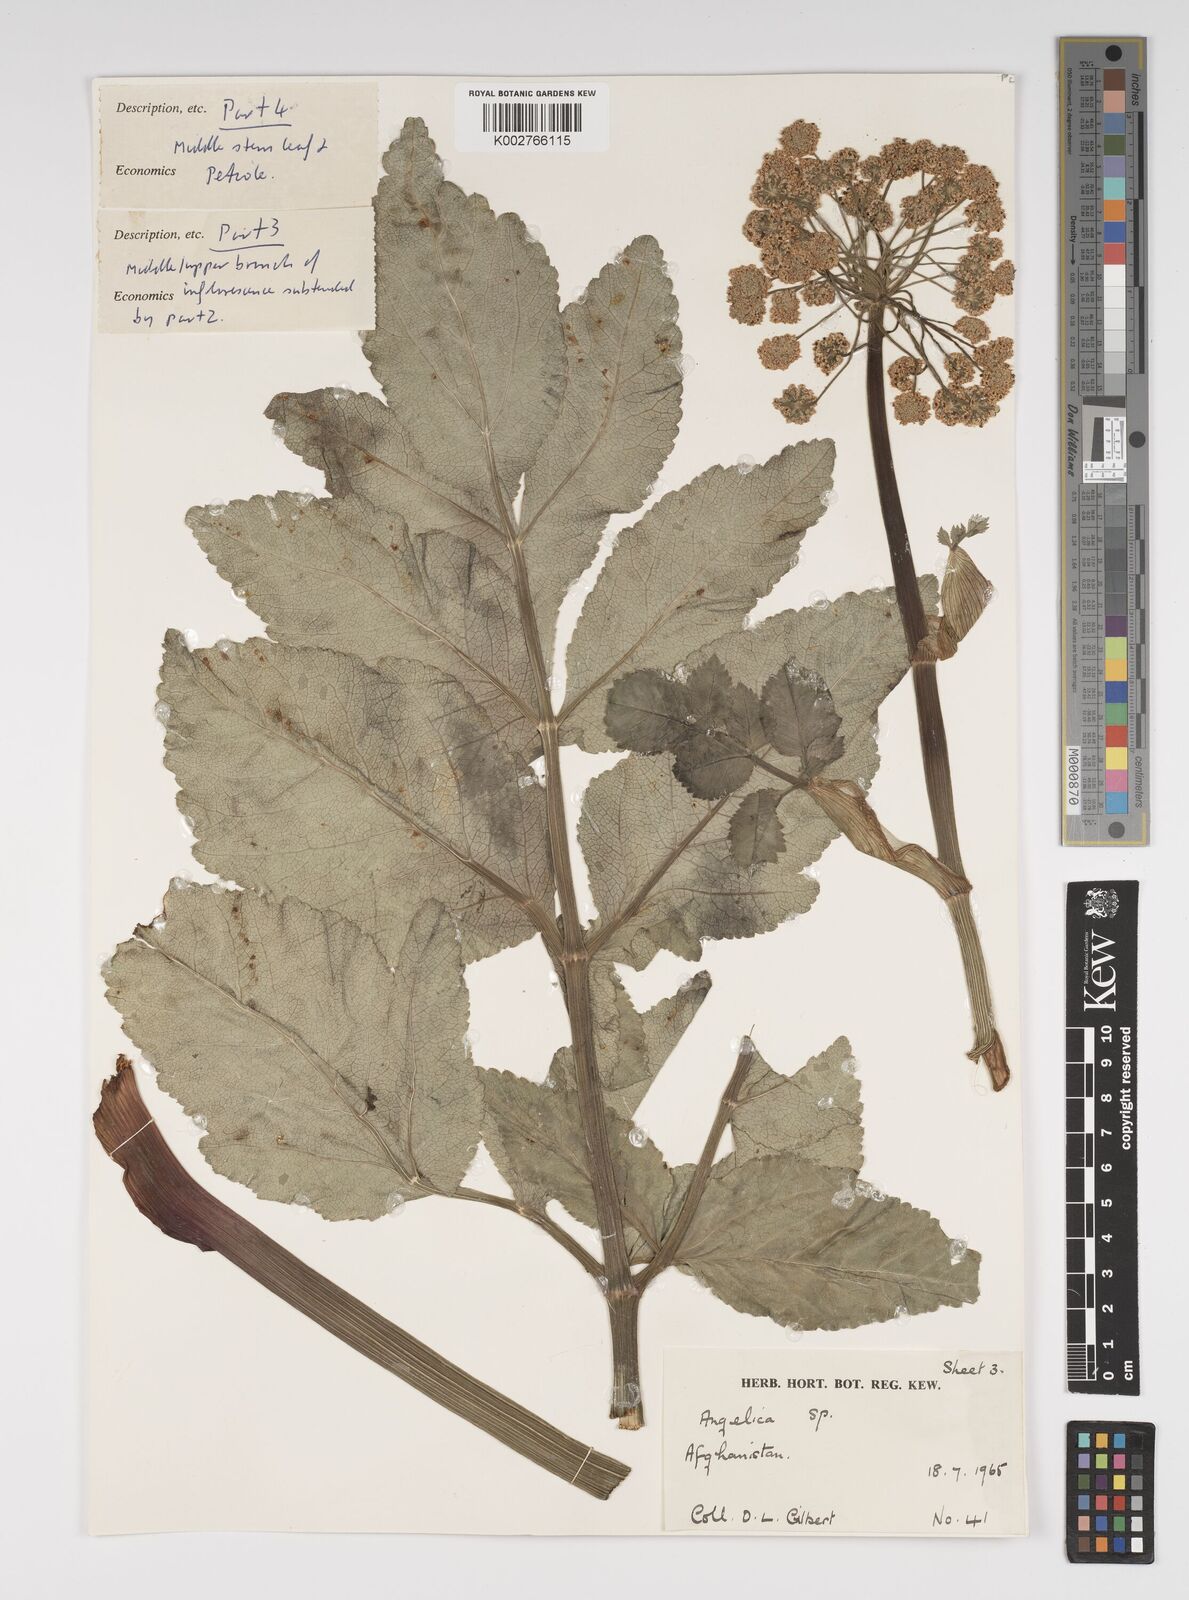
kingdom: Plantae
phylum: Tracheophyta
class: Magnoliopsida
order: Apiales
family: Apiaceae
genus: Angelica
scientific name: Angelica
